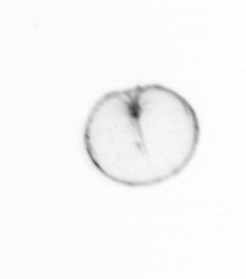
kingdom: Chromista
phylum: Myzozoa
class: Dinophyceae
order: Noctilucales
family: Noctilucaceae
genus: Noctiluca
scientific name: Noctiluca scintillans
